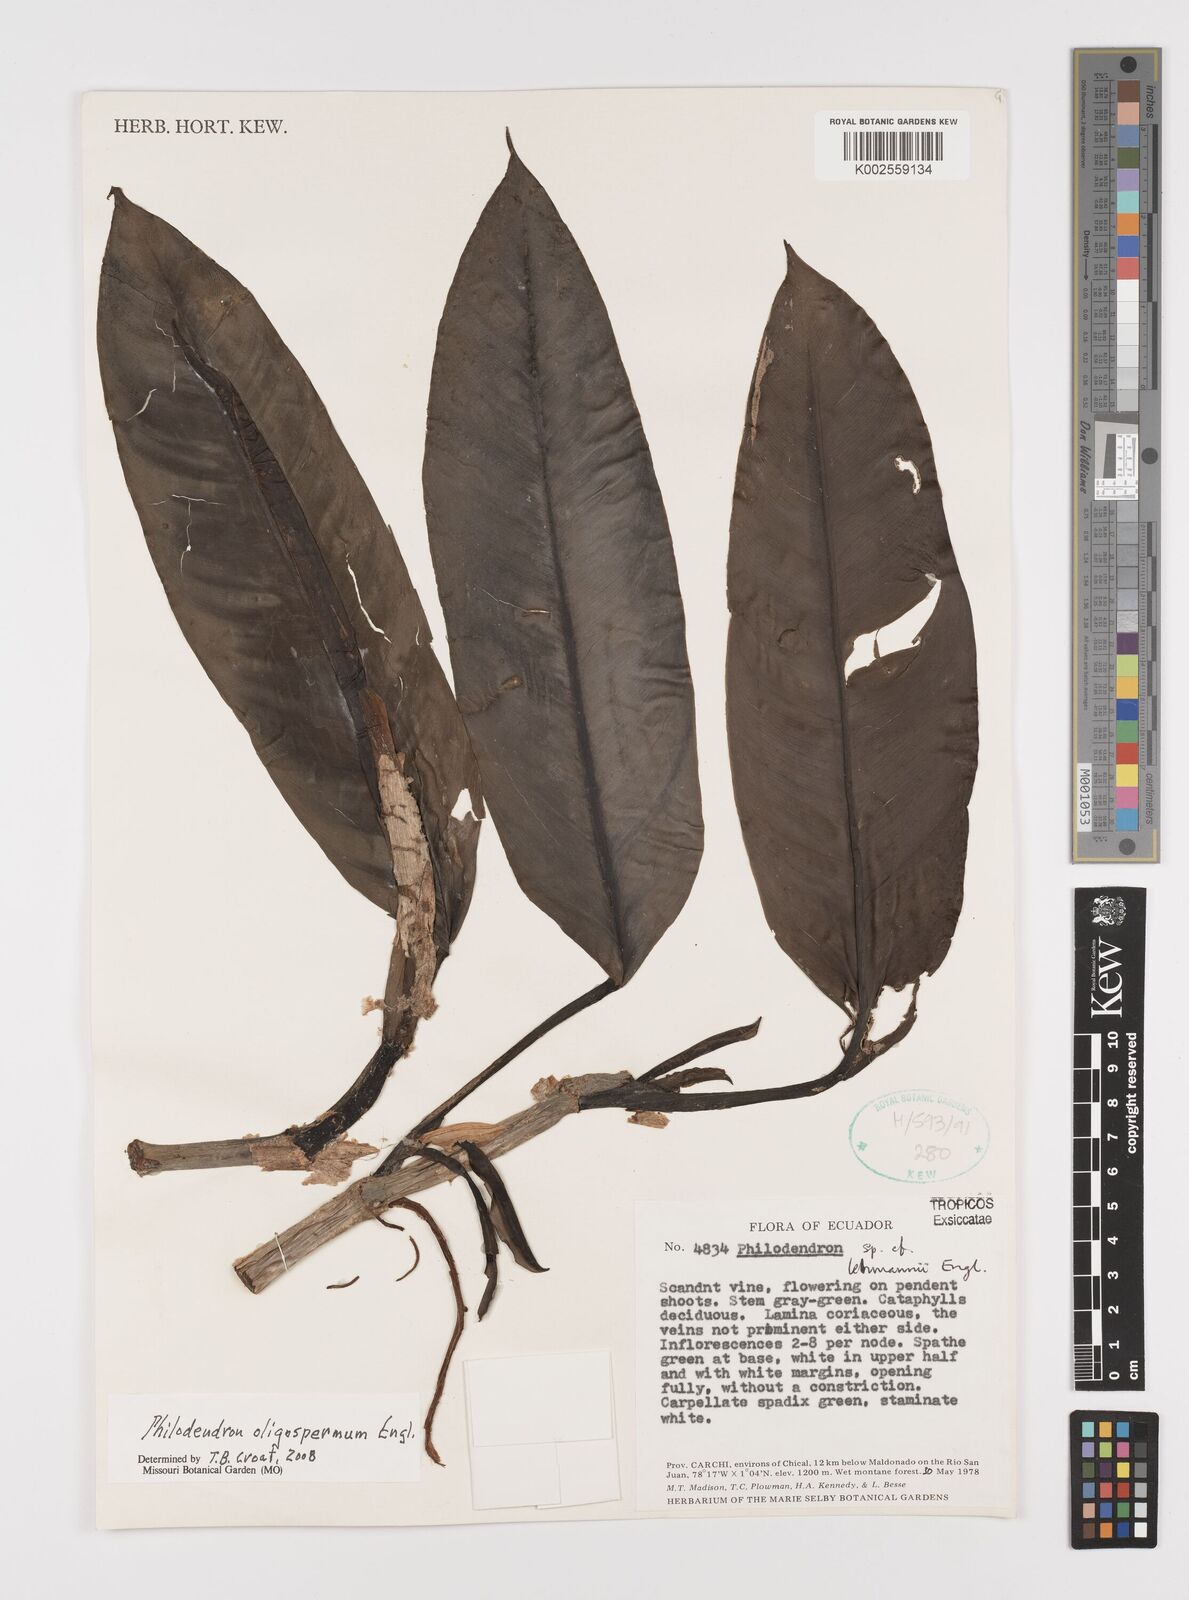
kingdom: Plantae
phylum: Tracheophyta
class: Liliopsida
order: Alismatales
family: Araceae
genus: Philodendron
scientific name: Philodendron oligospermum
